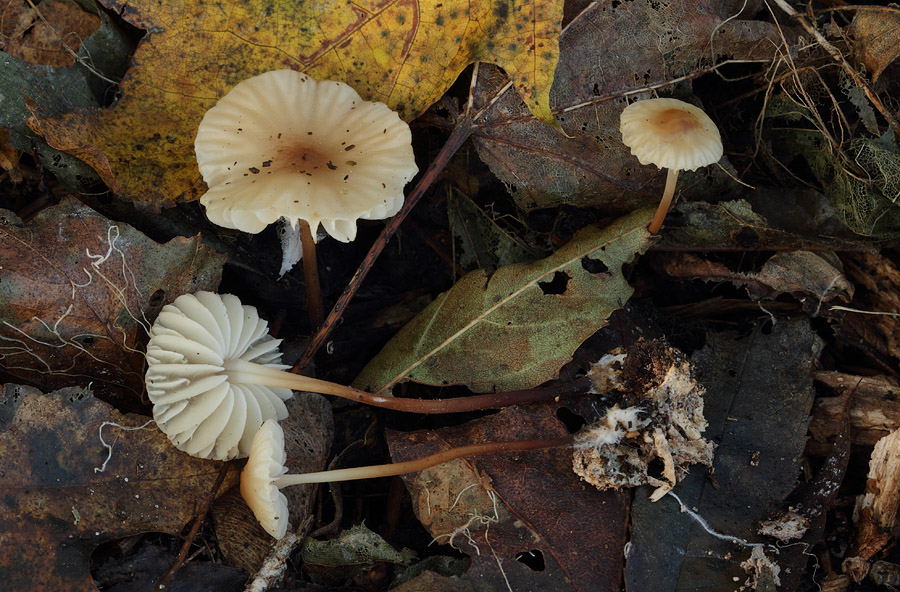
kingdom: Fungi
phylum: Basidiomycota
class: Agaricomycetes
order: Agaricales
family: Marasmiaceae
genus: Marasmius
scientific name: Marasmius torquescens
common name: filtfodet bruskhat
